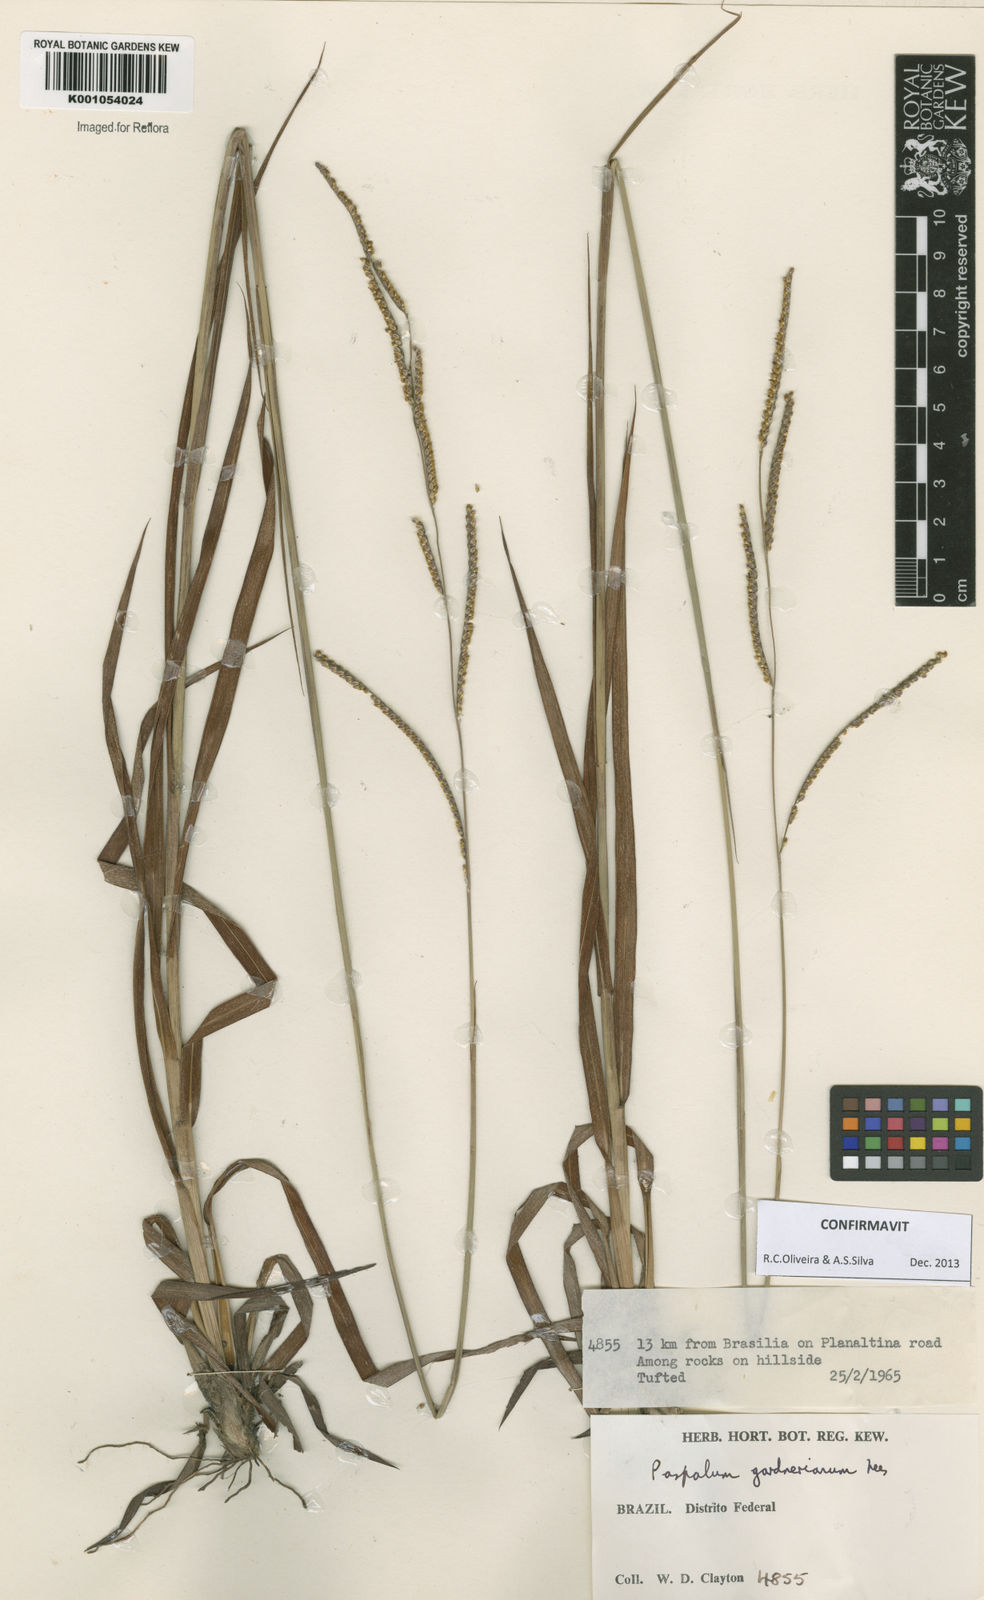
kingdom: Plantae
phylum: Tracheophyta
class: Liliopsida
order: Poales
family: Poaceae
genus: Paspalum
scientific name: Paspalum gardnerianum
